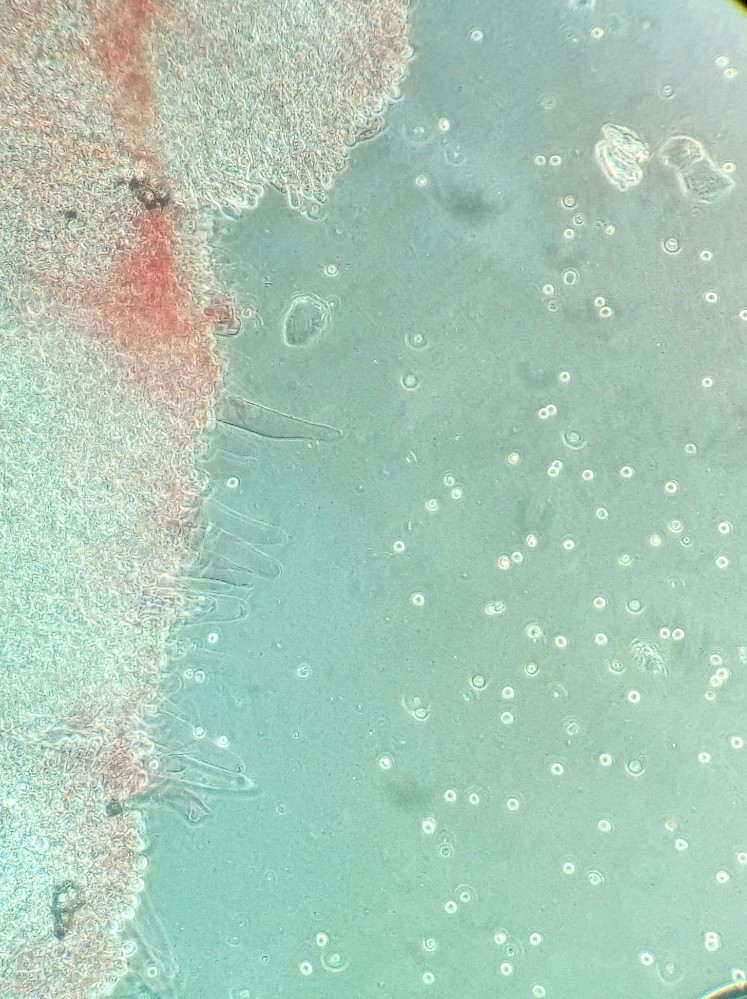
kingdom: Fungi
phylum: Basidiomycota
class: Agaricomycetes
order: Agaricales
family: Pluteaceae
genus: Pluteus
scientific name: Pluteus umbrosus
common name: Velvet shield
